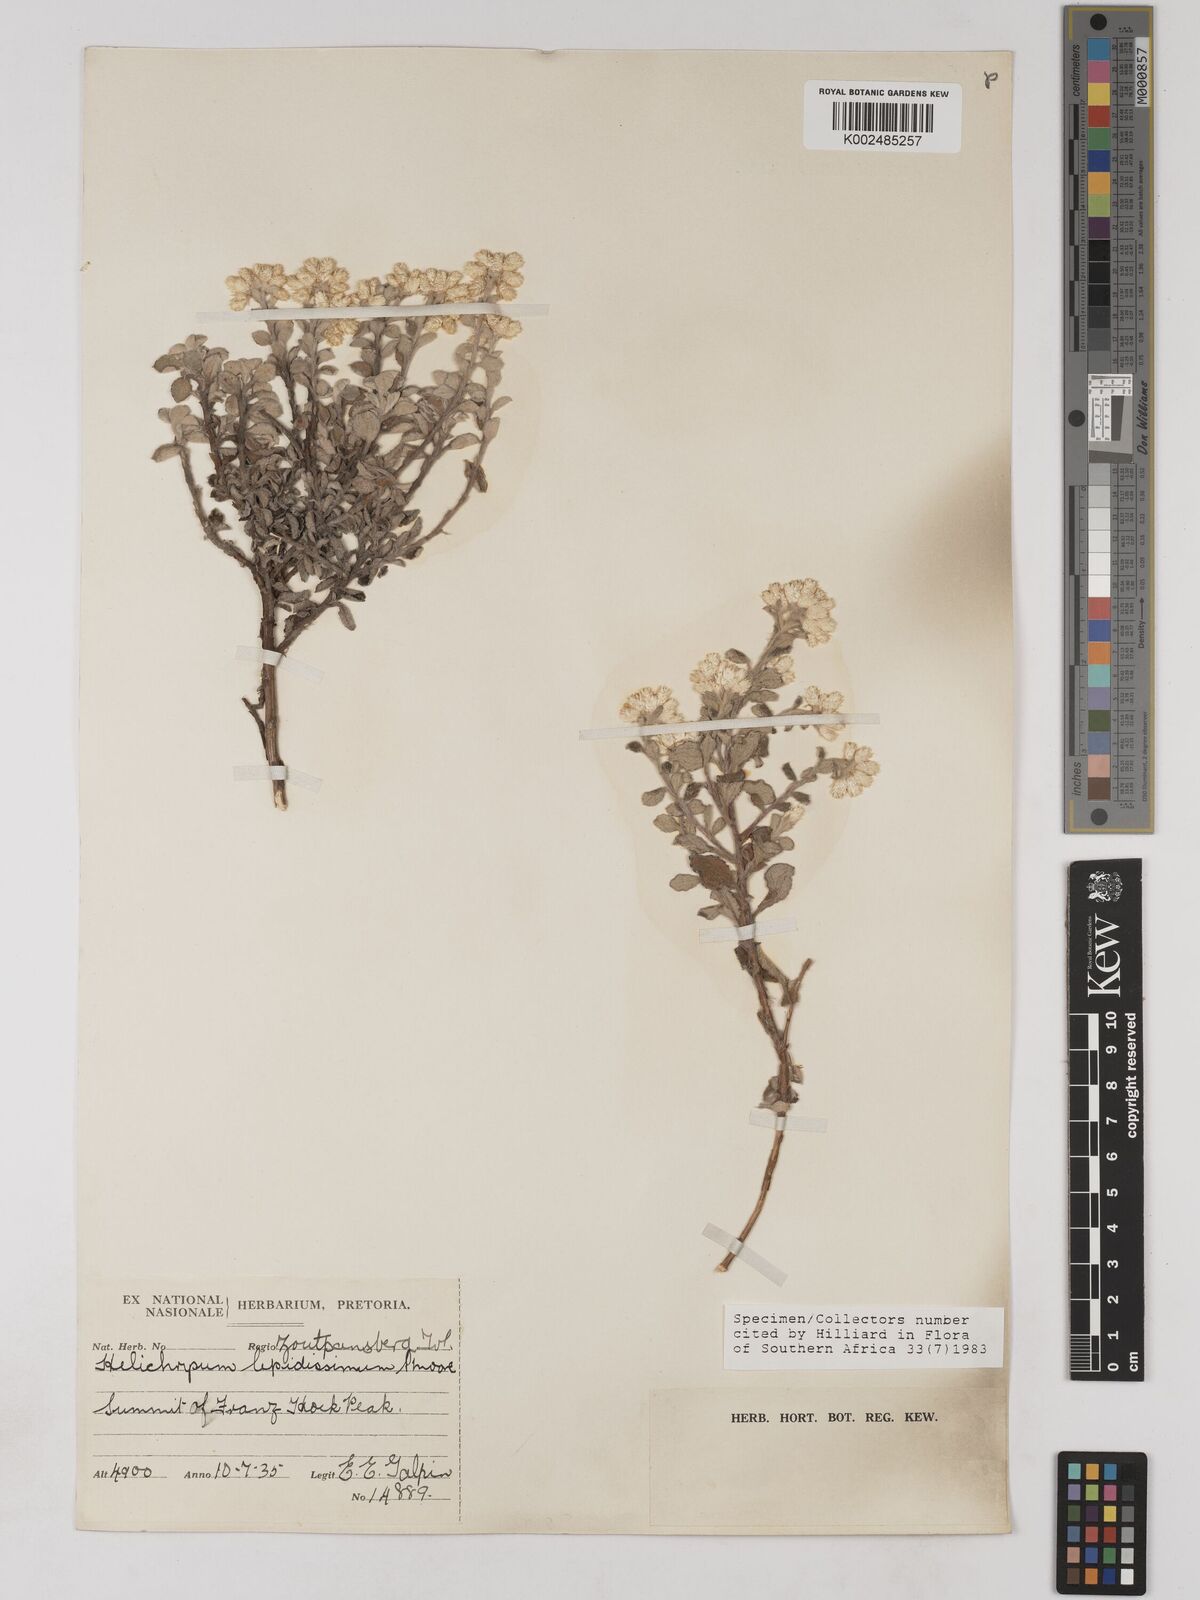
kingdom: Plantae
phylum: Tracheophyta
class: Magnoliopsida
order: Asterales
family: Asteraceae
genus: Helichrysum
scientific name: Helichrysum lepidissimum
